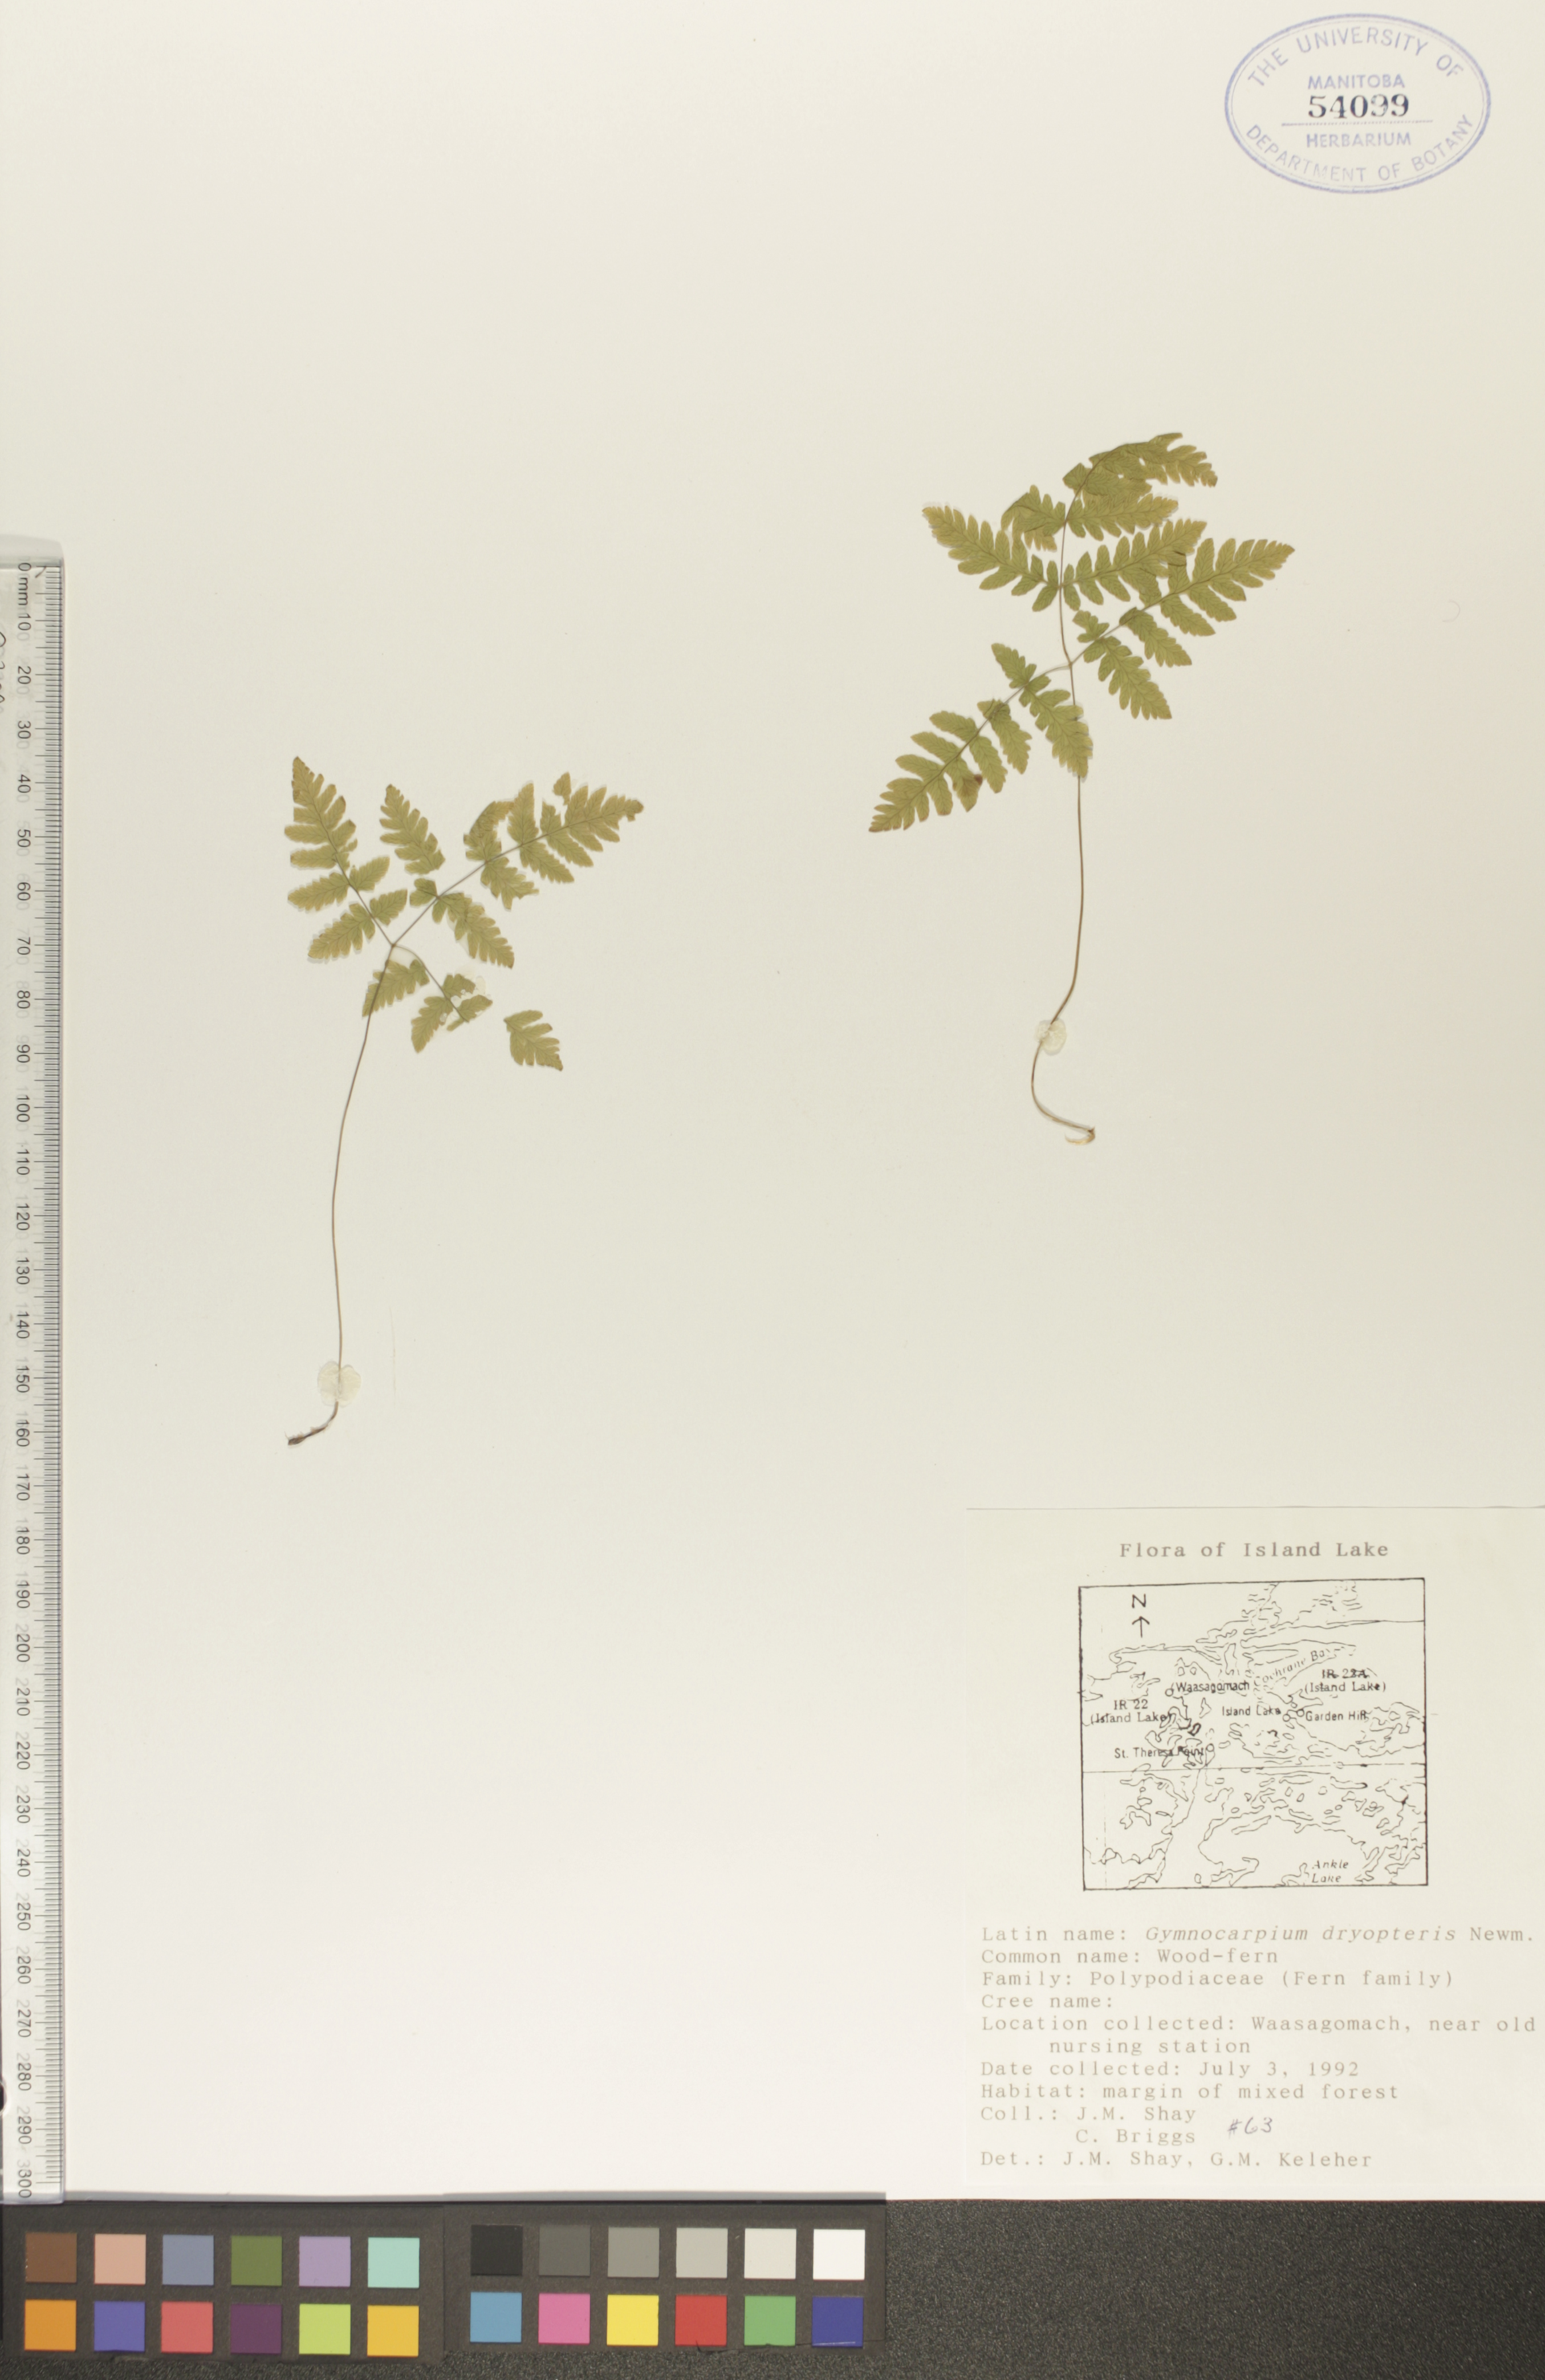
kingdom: Plantae
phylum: Tracheophyta
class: Polypodiopsida
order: Polypodiales
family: Cystopteridaceae
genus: Gymnocarpium
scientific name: Gymnocarpium dryopteris
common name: Oak fern
